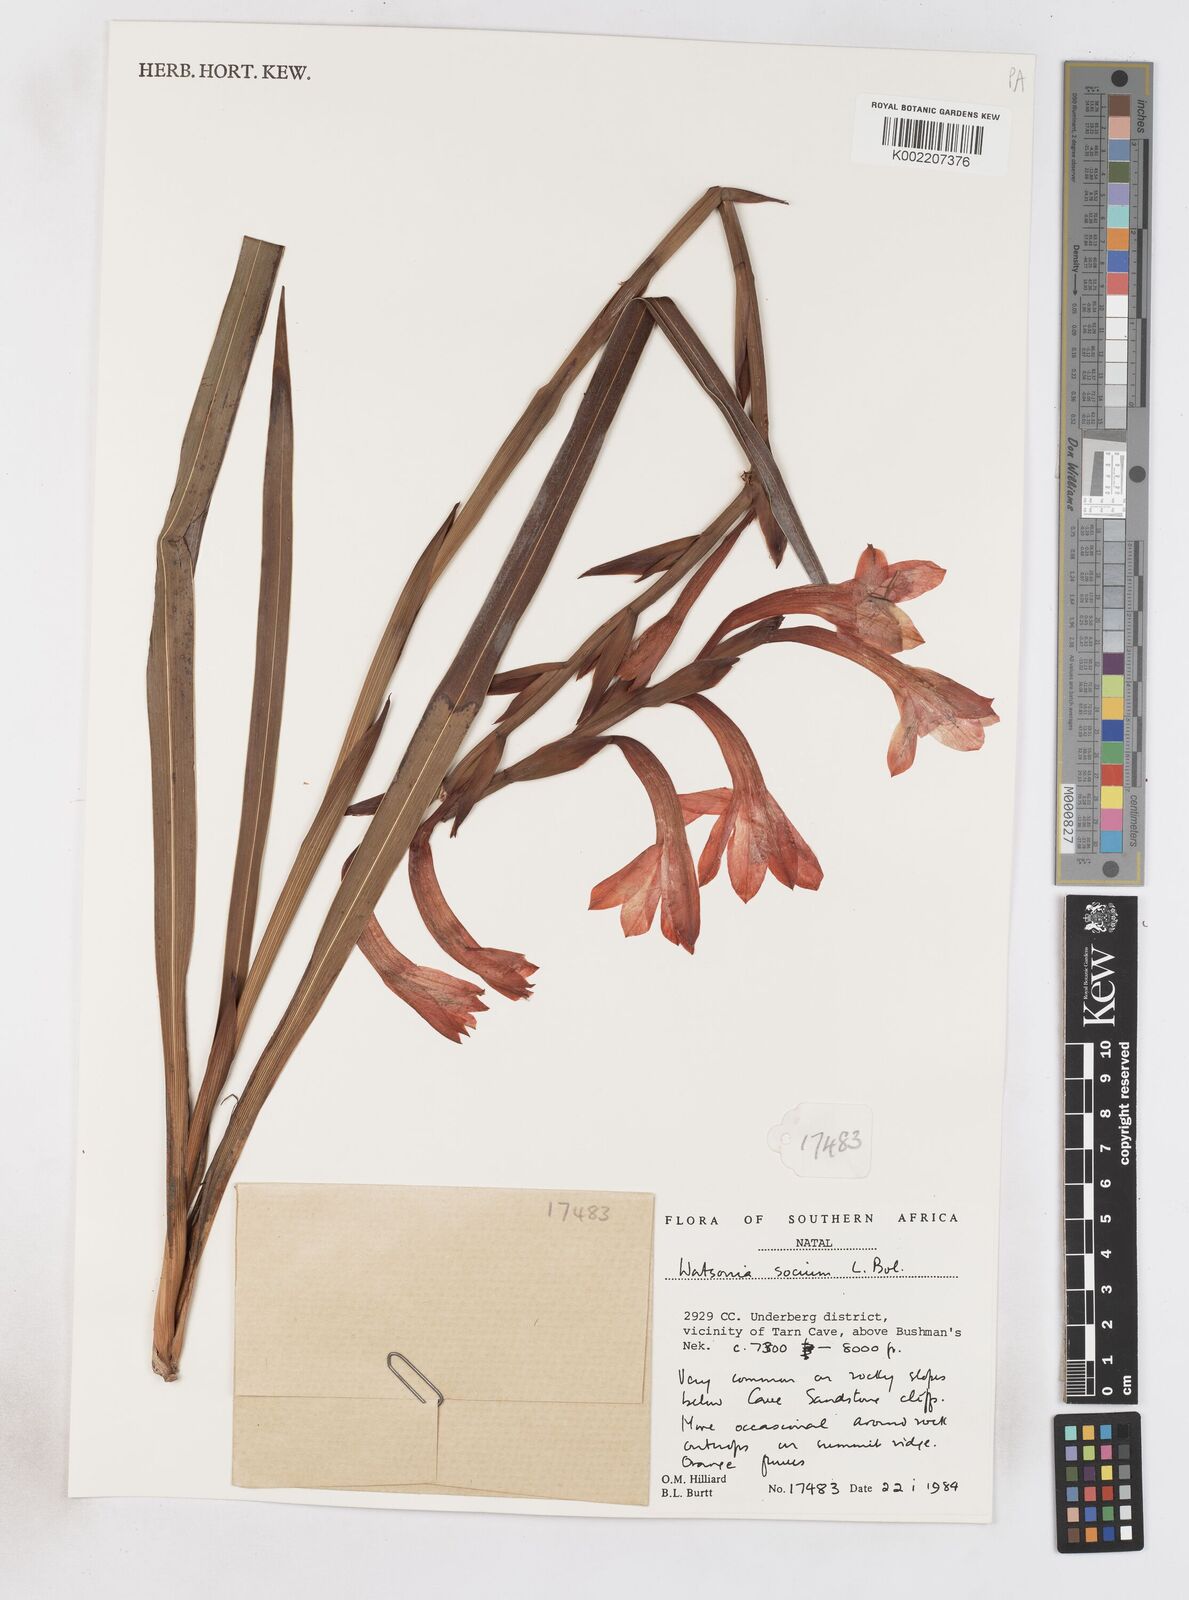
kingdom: Plantae
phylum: Tracheophyta
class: Liliopsida
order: Asparagales
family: Iridaceae
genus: Watsonia
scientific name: Watsonia pillansii
